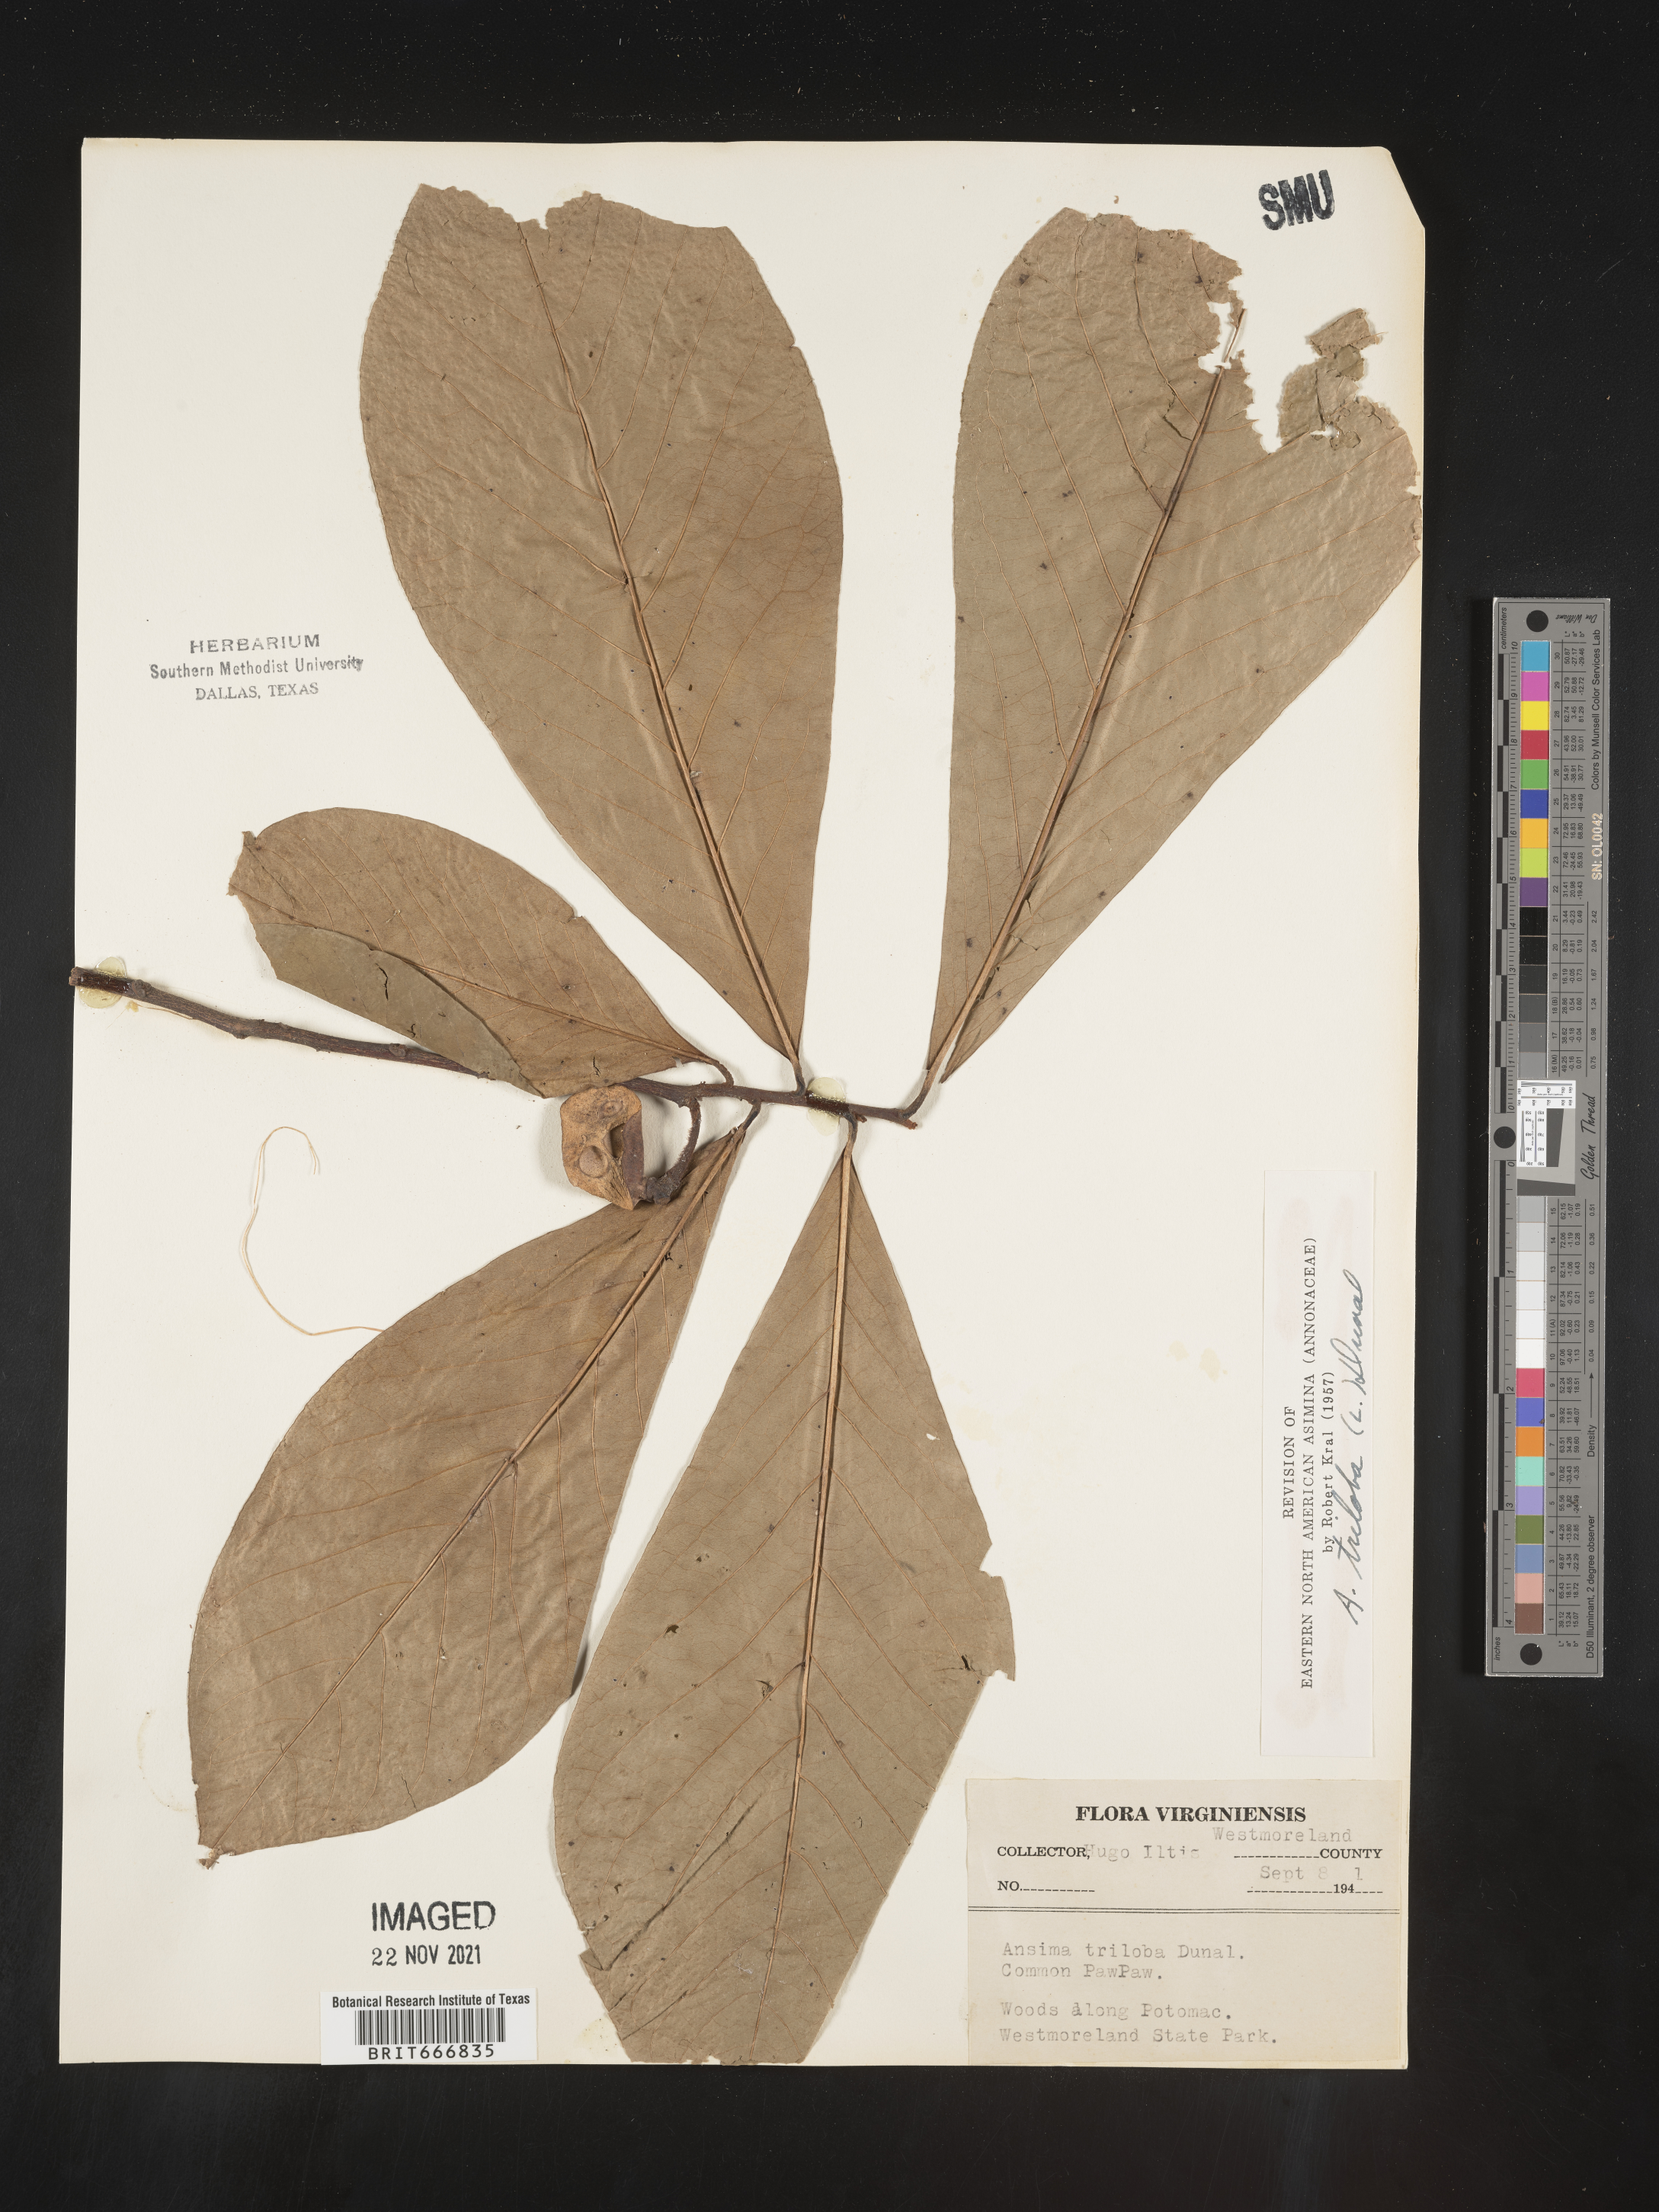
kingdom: Plantae
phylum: Tracheophyta
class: Magnoliopsida
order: Magnoliales
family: Annonaceae
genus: Asimina
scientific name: Asimina triloba
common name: Dog-banana
